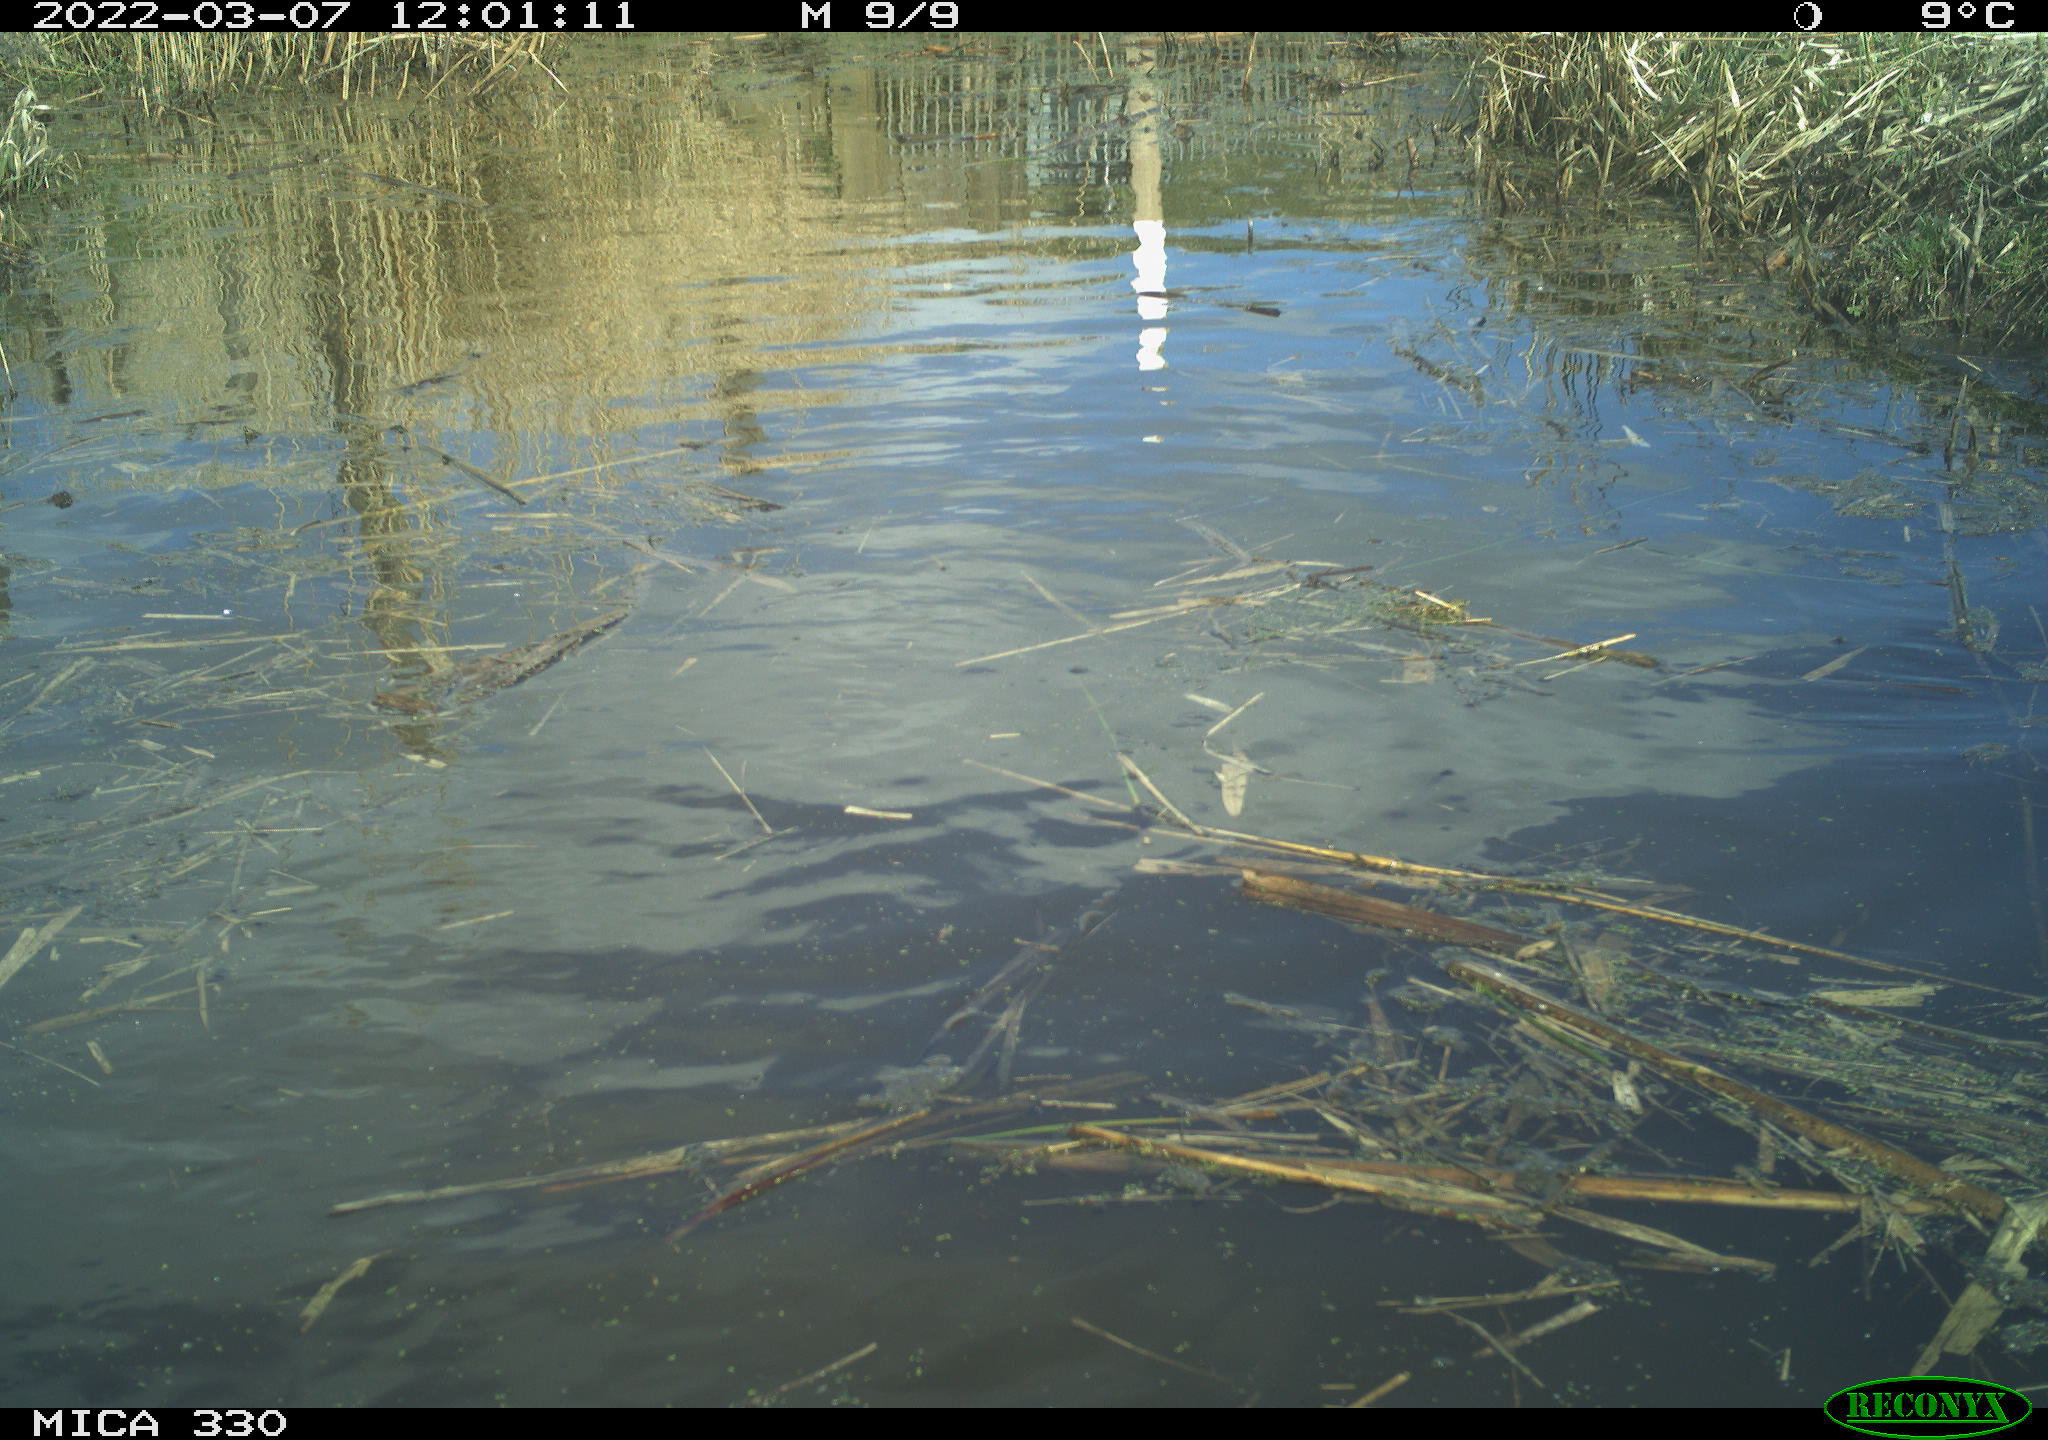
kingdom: Animalia
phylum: Chordata
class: Aves
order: Anseriformes
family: Anatidae
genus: Anas
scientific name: Anas platyrhynchos
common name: Mallard
